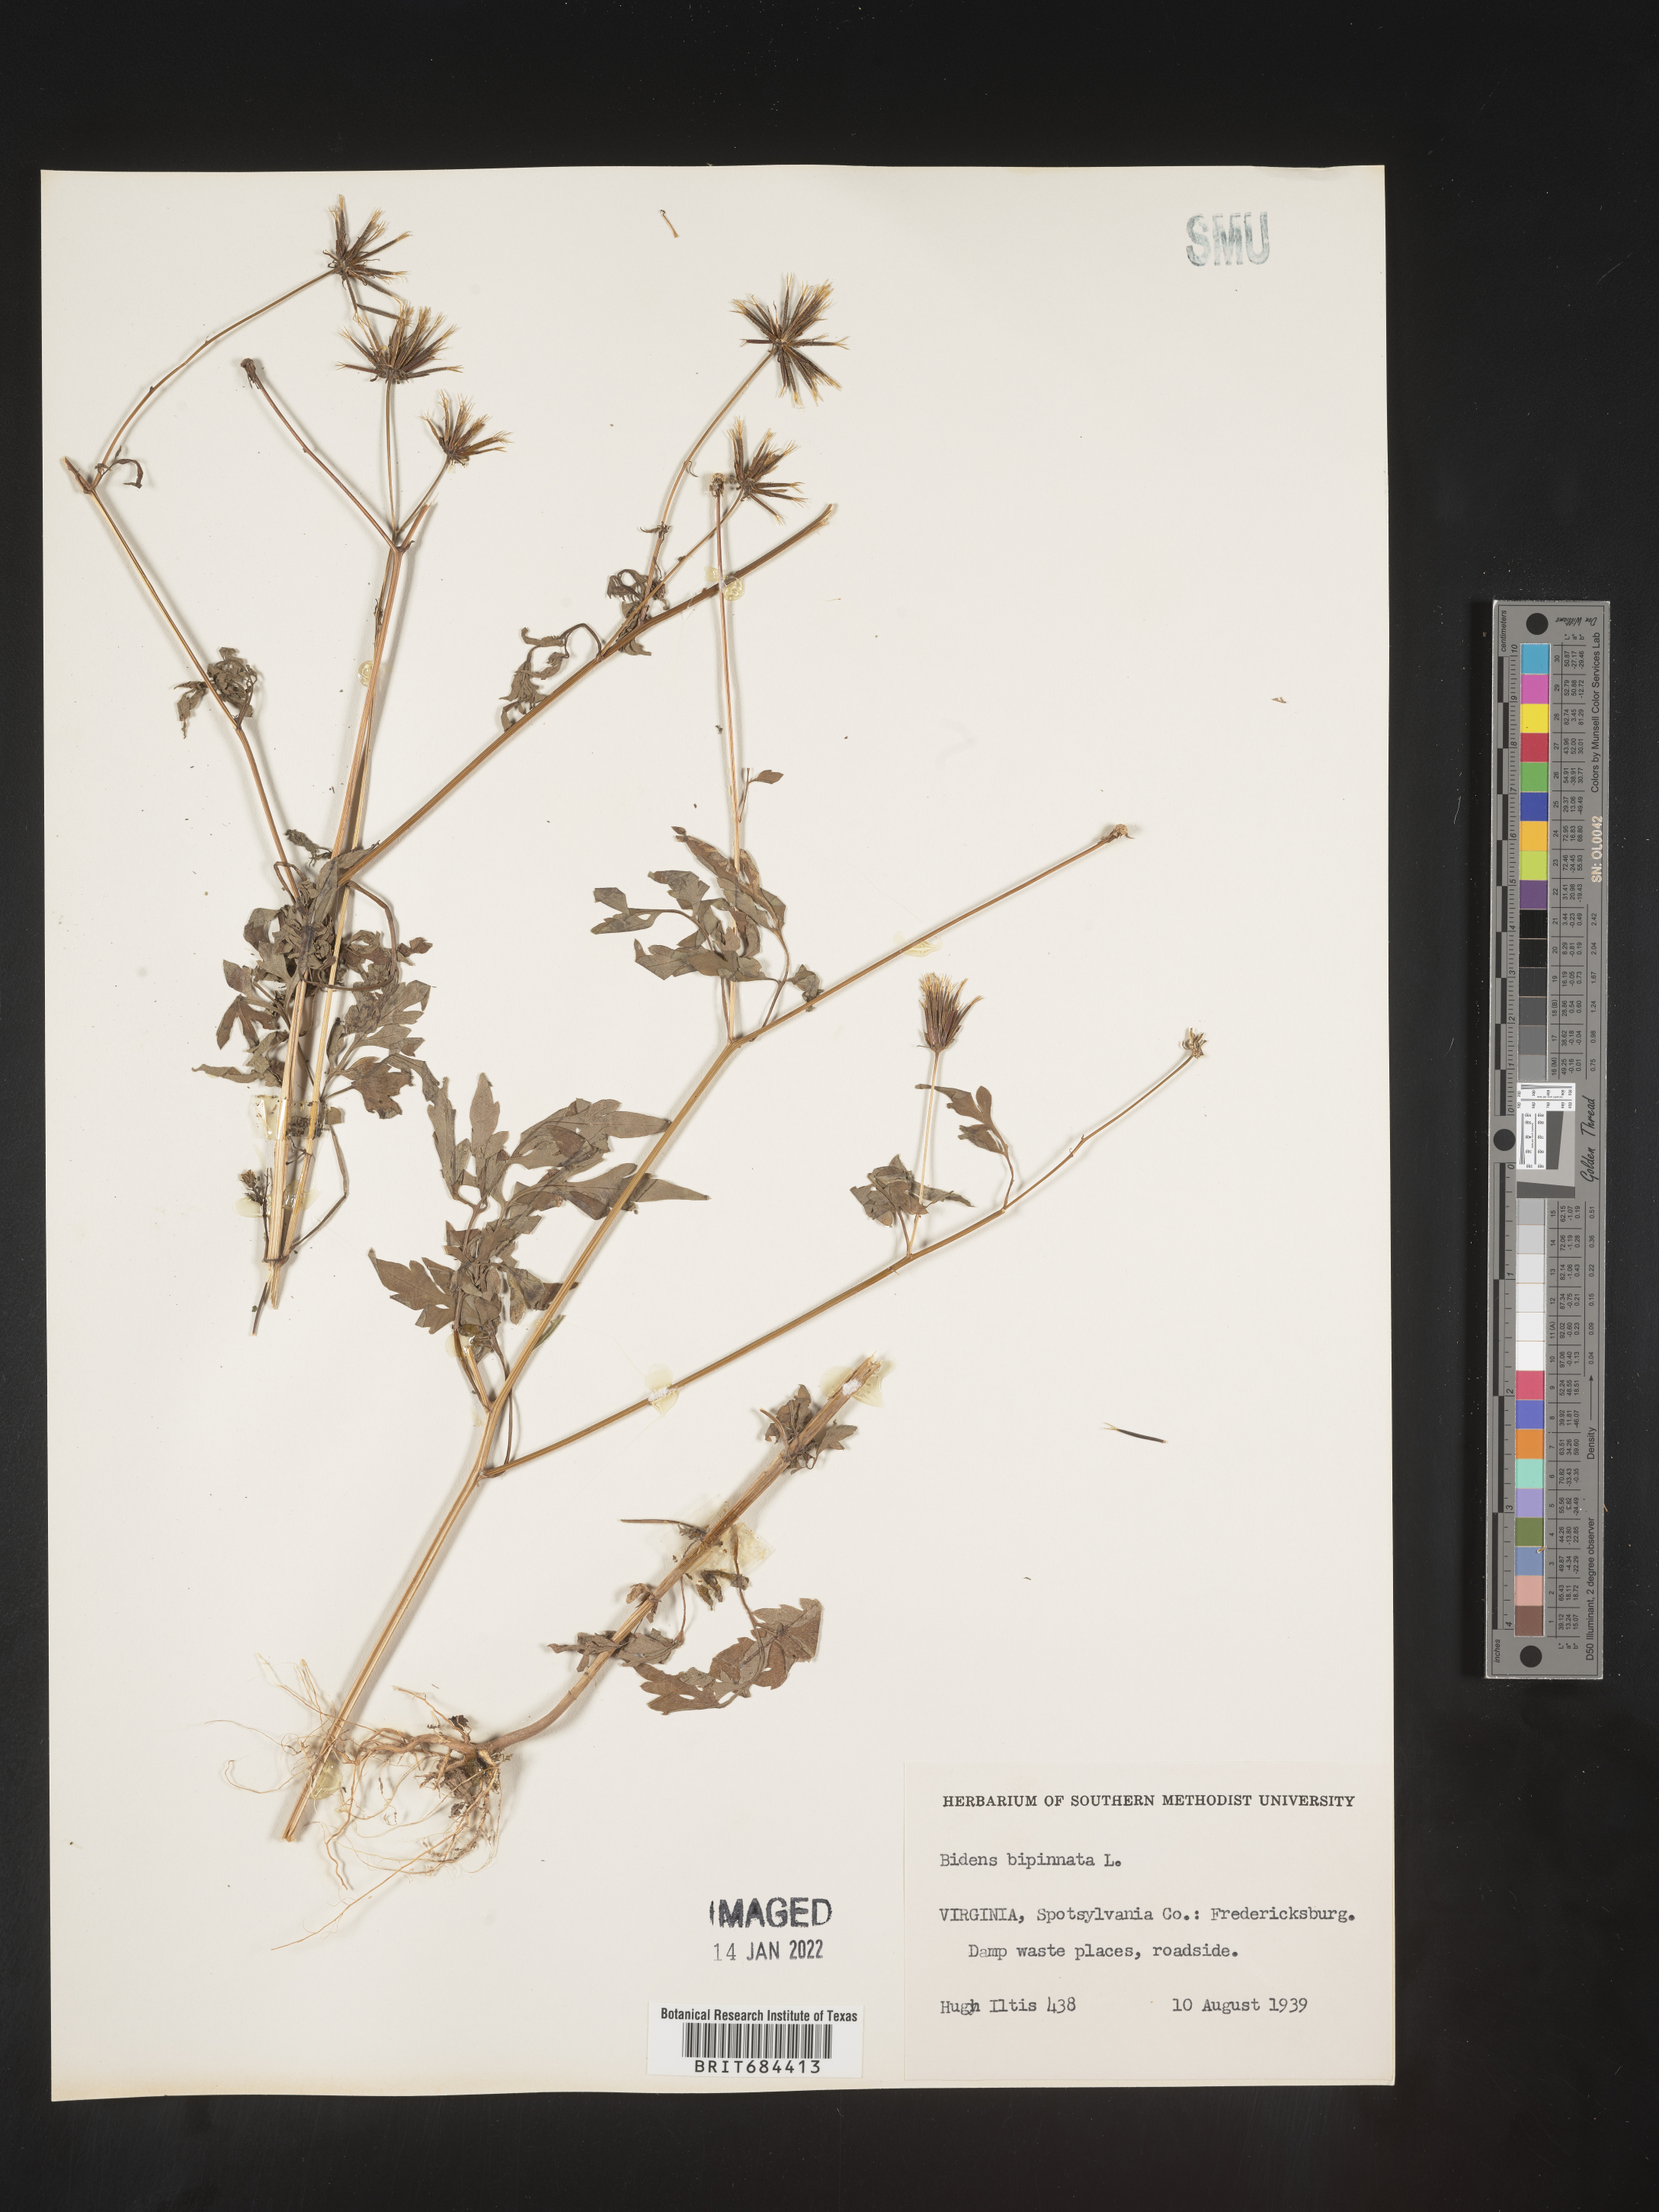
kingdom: Plantae
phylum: Tracheophyta
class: Magnoliopsida
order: Asterales
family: Asteraceae
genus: Bidens
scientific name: Bidens bipinnata
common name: Spanish-needles
